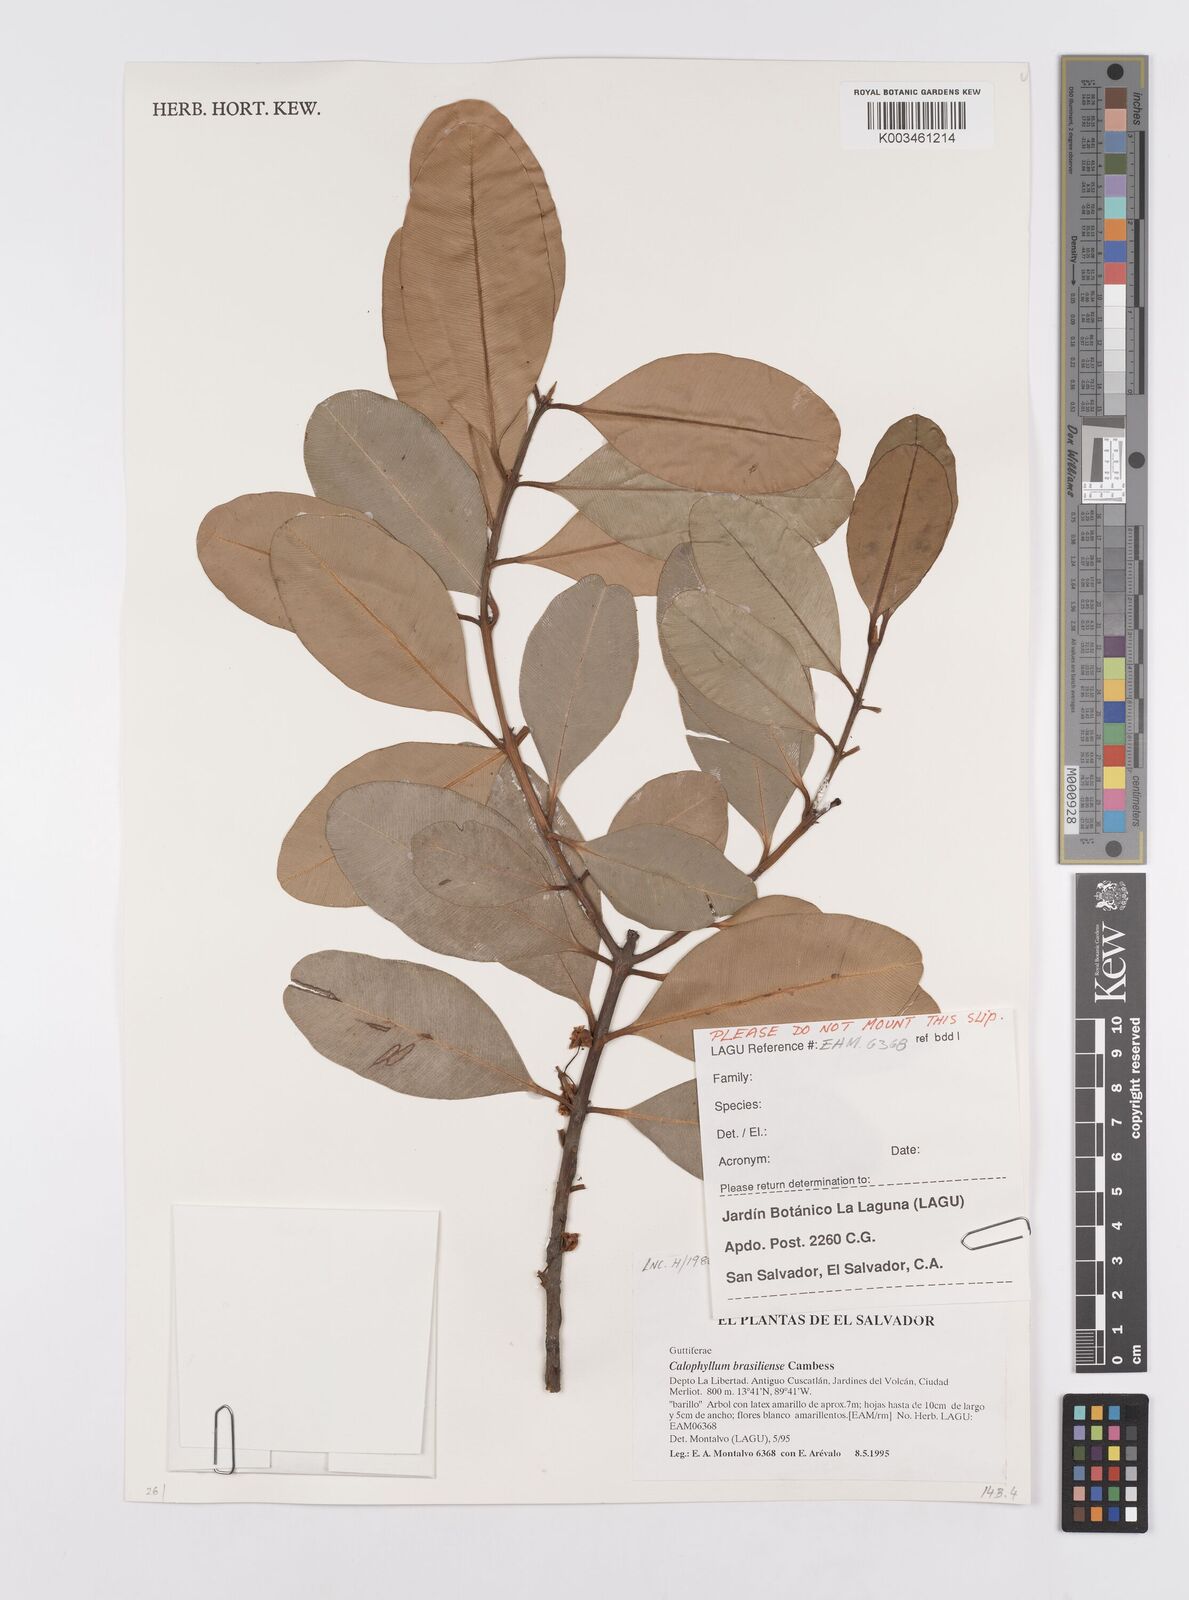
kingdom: Plantae
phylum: Tracheophyta
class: Magnoliopsida
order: Malpighiales
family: Calophyllaceae
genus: Calophyllum
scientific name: Calophyllum brasiliense
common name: Santa maria
